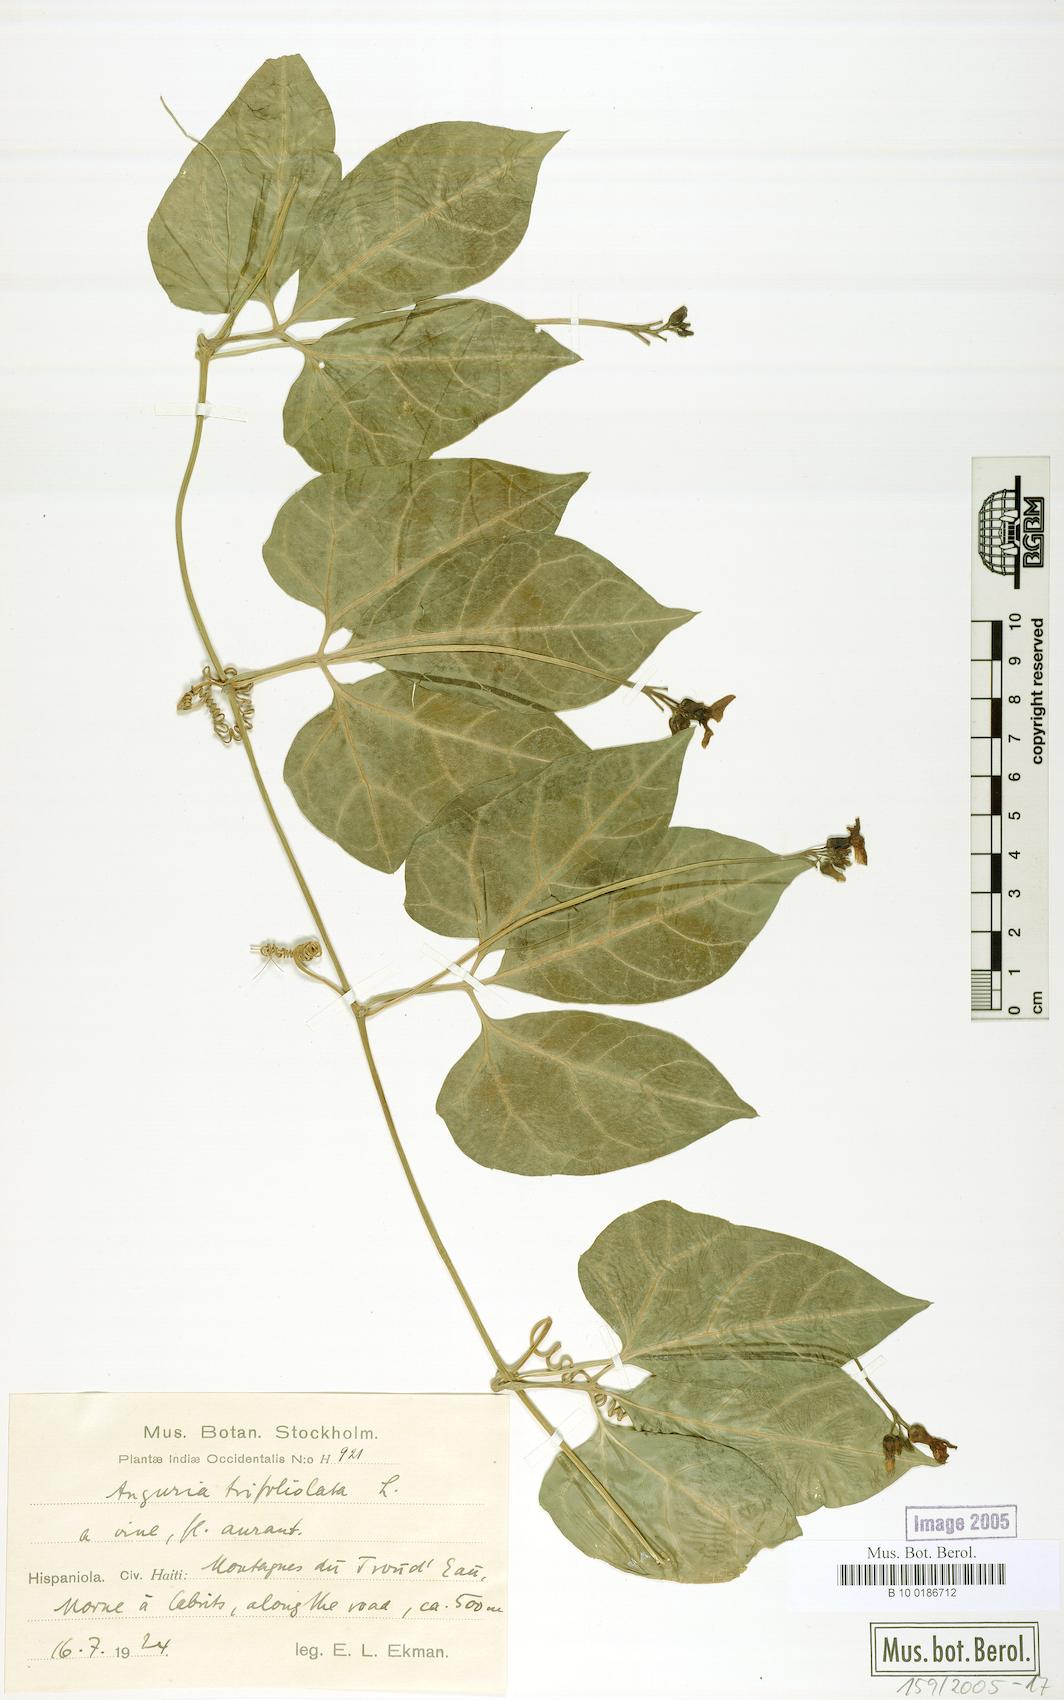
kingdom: Plantae
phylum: Tracheophyta
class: Magnoliopsida
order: Cucurbitales
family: Cucurbitaceae
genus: Gurania
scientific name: Gurania
